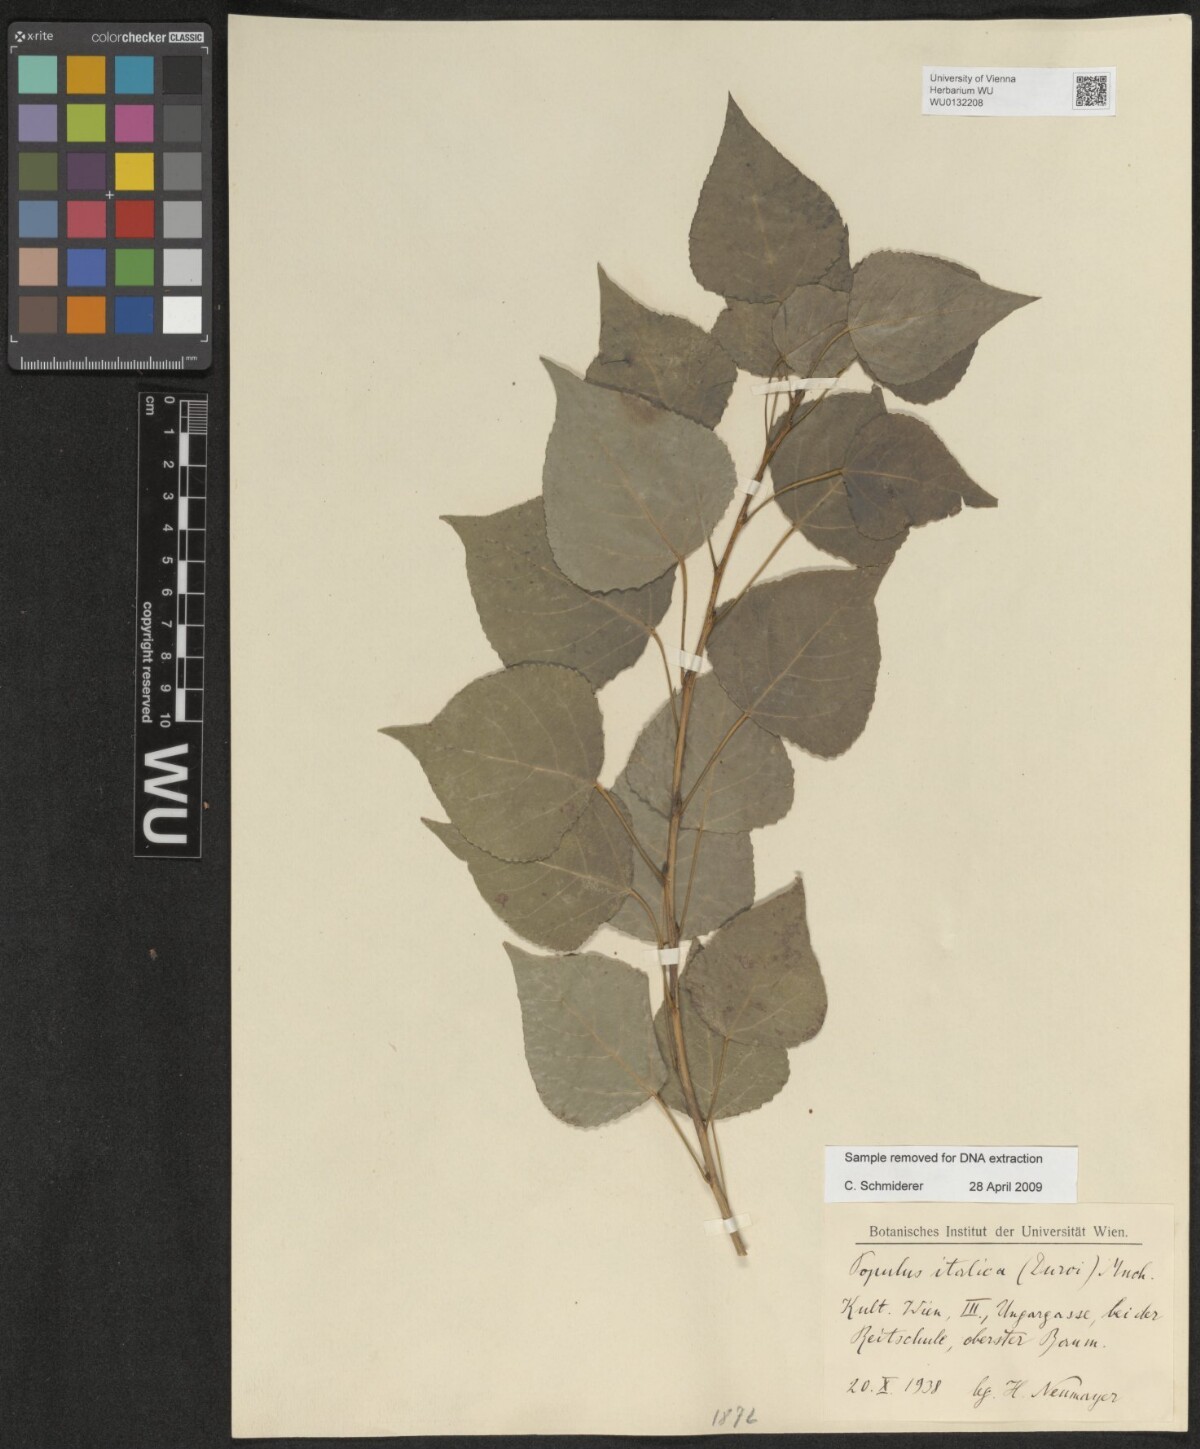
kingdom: Plantae
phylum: Tracheophyta
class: Magnoliopsida
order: Malpighiales
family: Salicaceae
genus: Populus
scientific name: Populus nigra
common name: Black poplar
